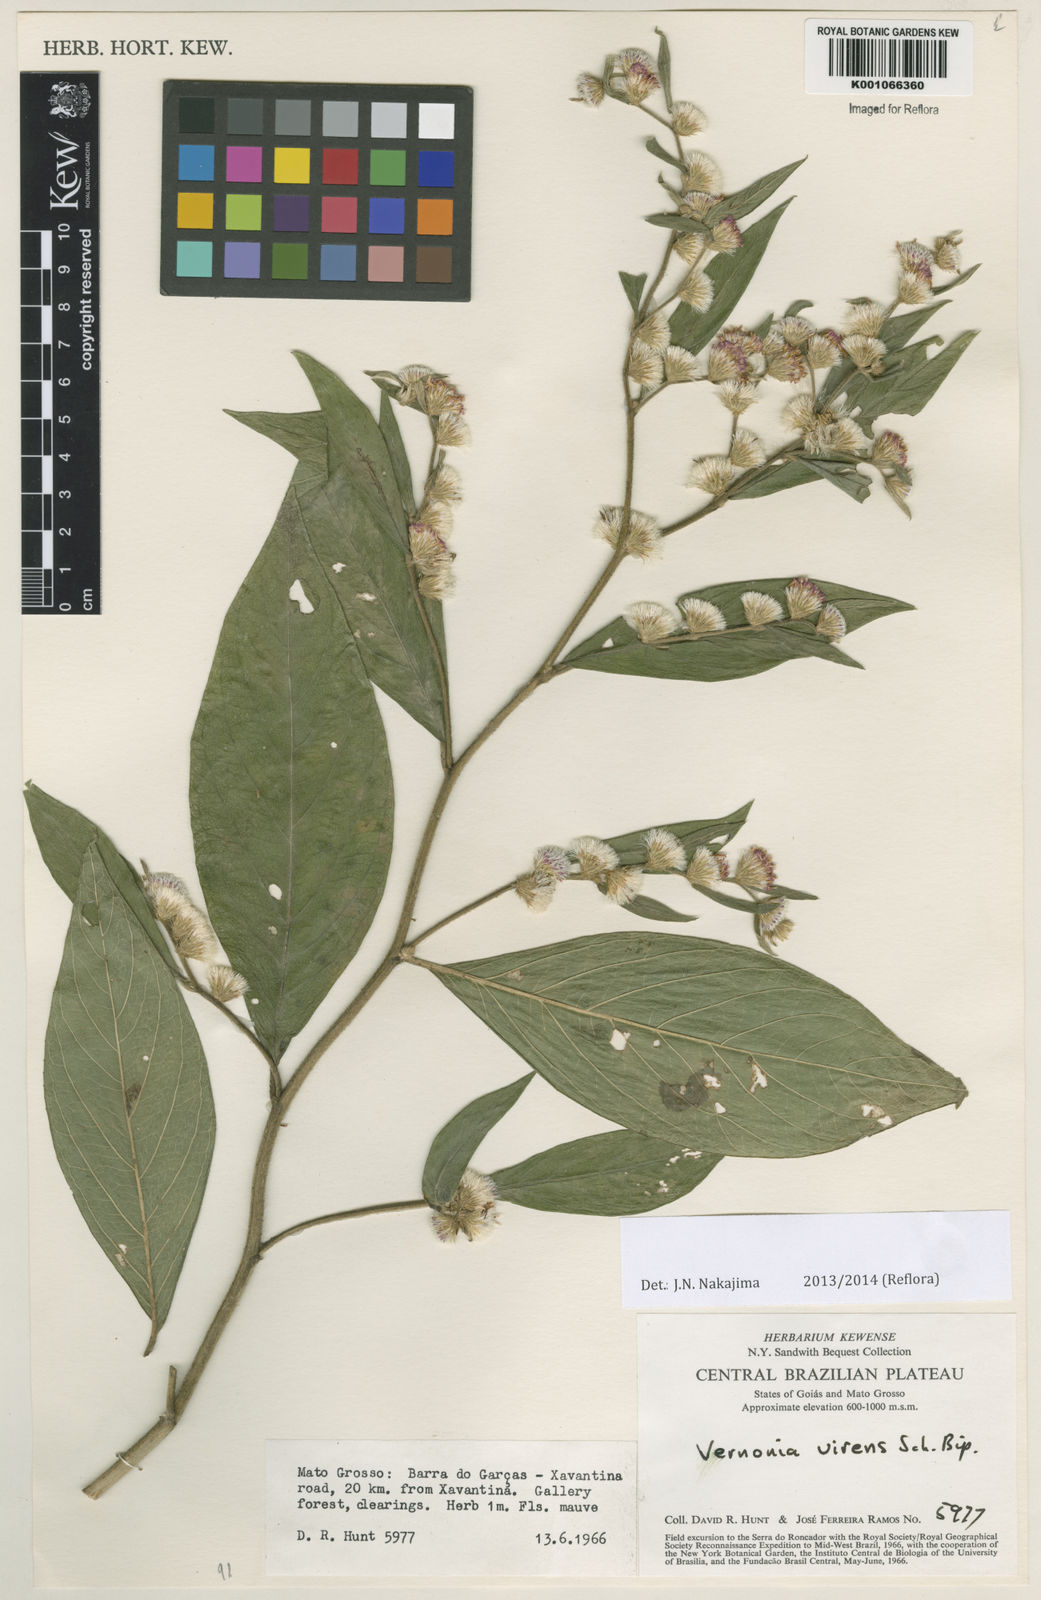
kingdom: Plantae
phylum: Tracheophyta
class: Magnoliopsida
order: Asterales
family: Asteraceae
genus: Lepidaploa
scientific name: Lepidaploa salzmannii
